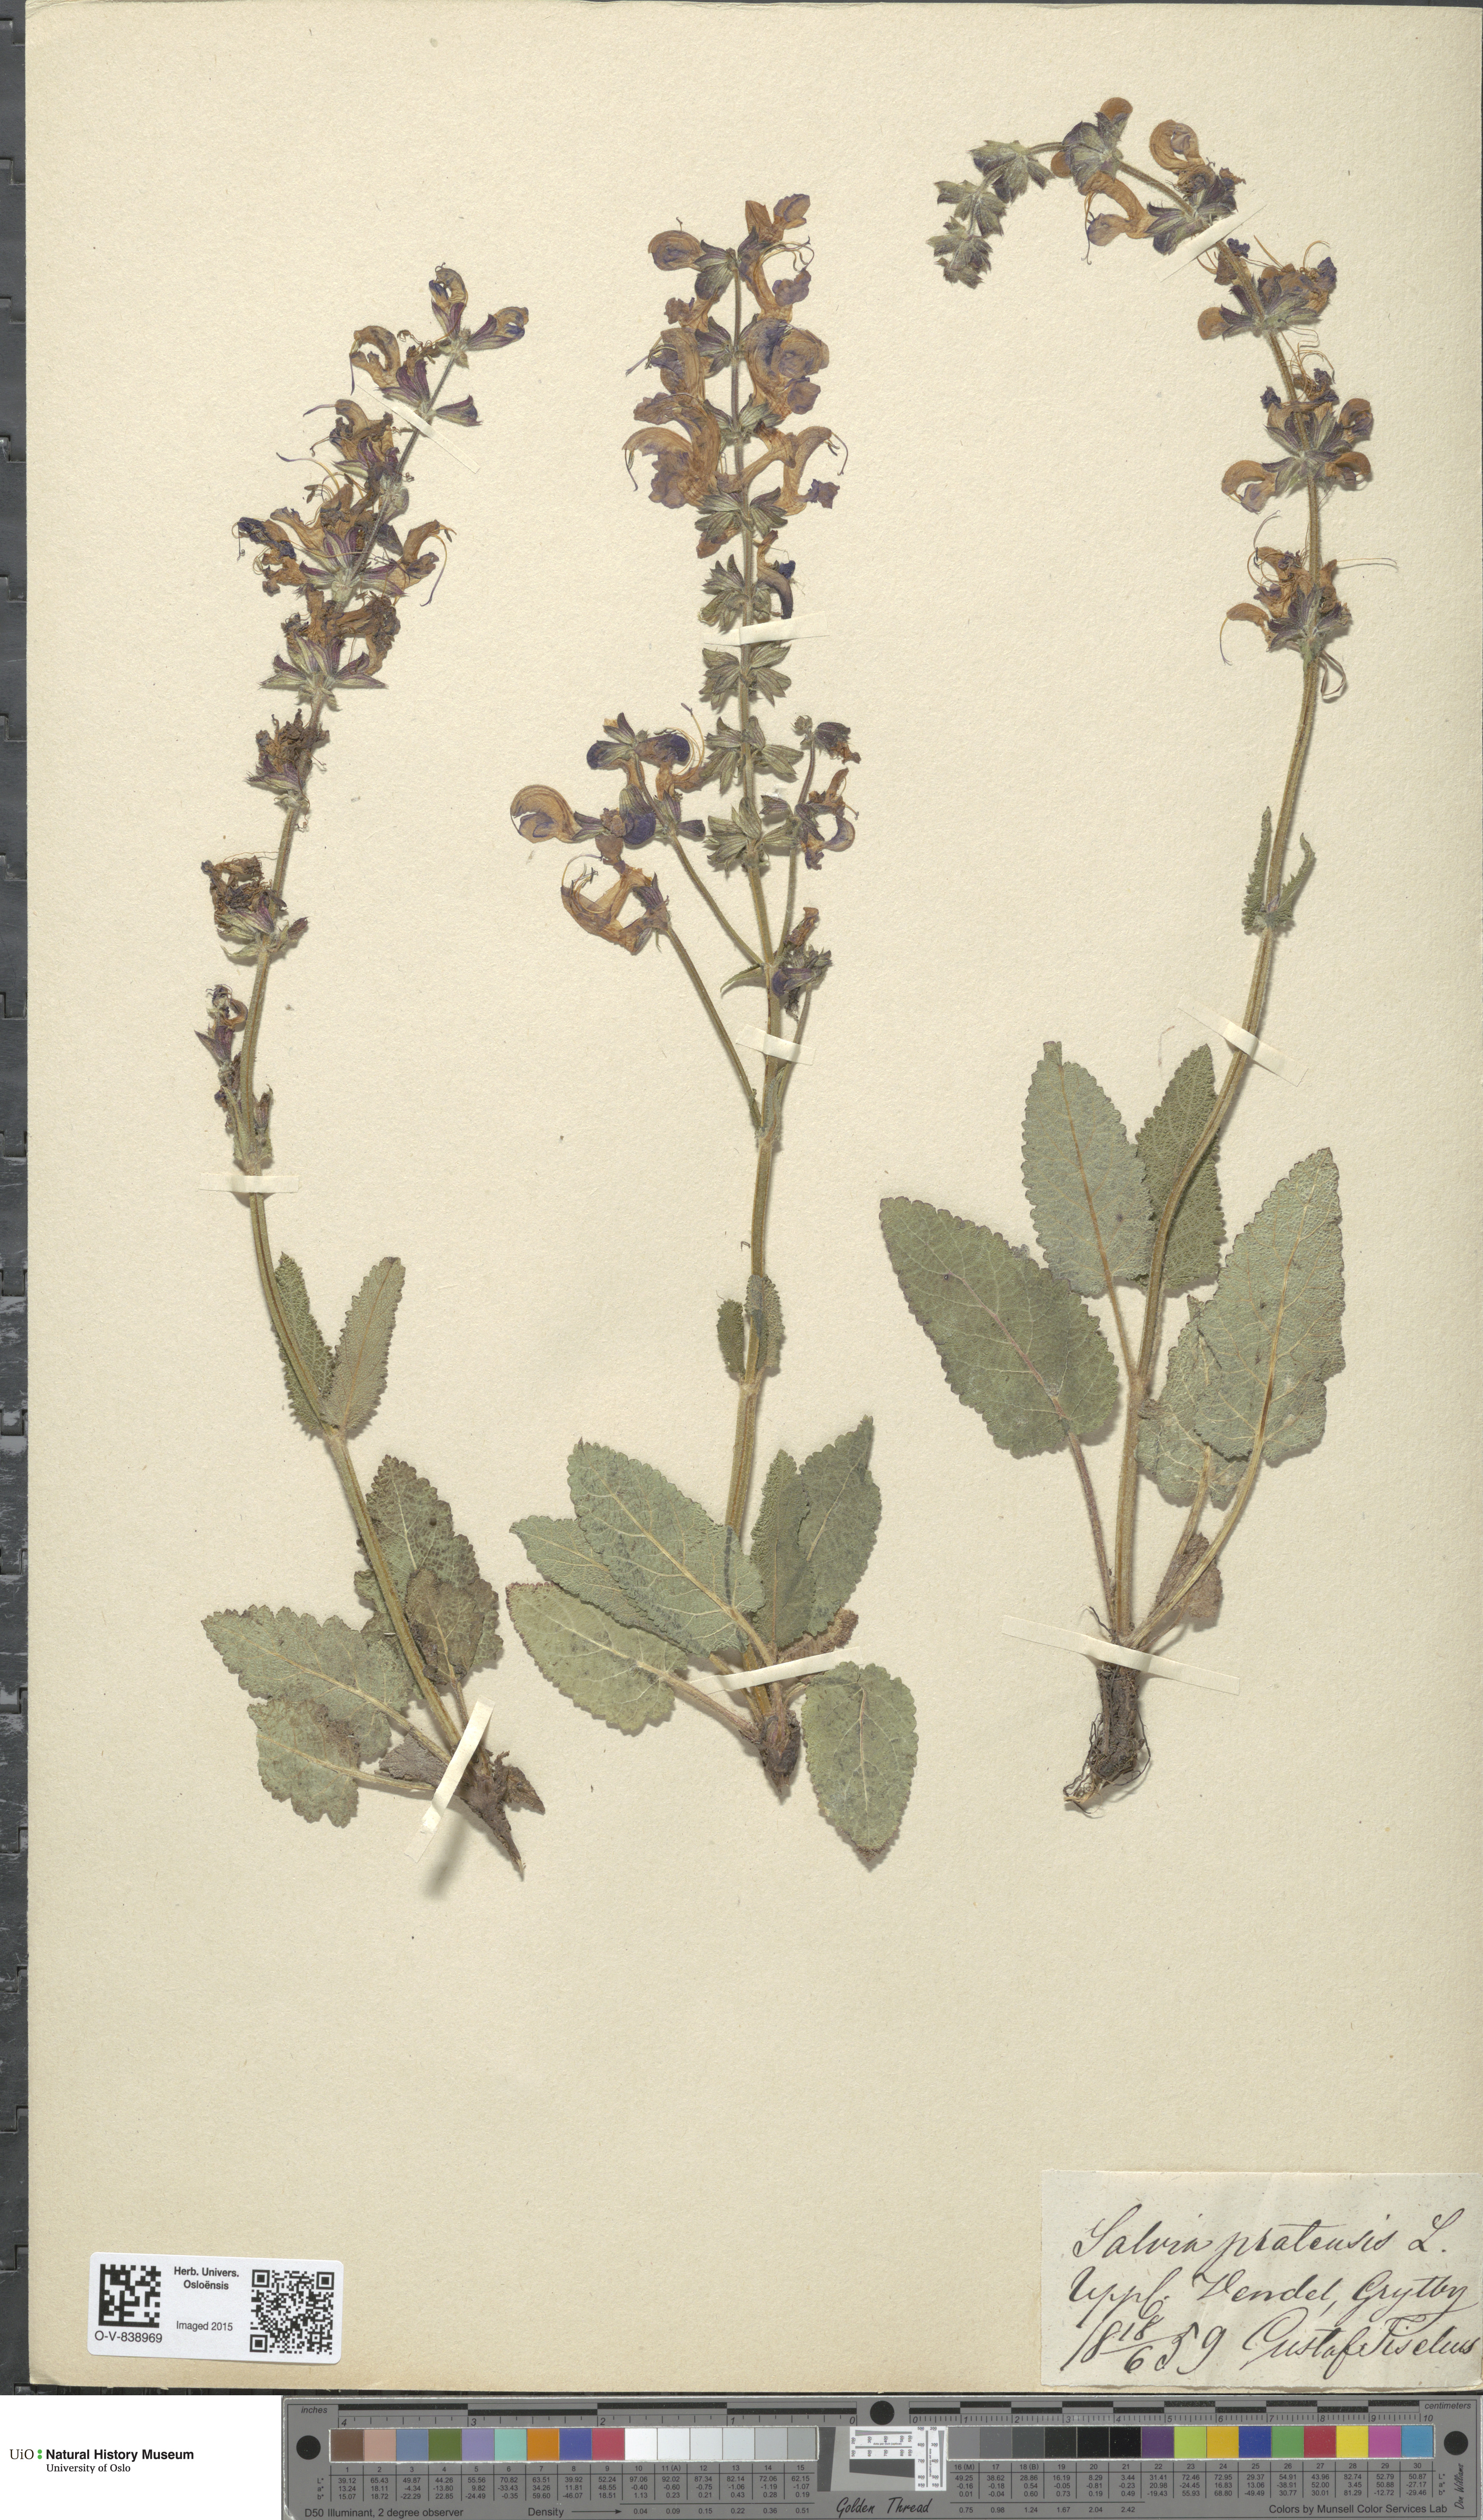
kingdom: Plantae
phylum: Tracheophyta
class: Magnoliopsida
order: Lamiales
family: Lamiaceae
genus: Salvia
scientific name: Salvia pratensis
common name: Meadow sage
